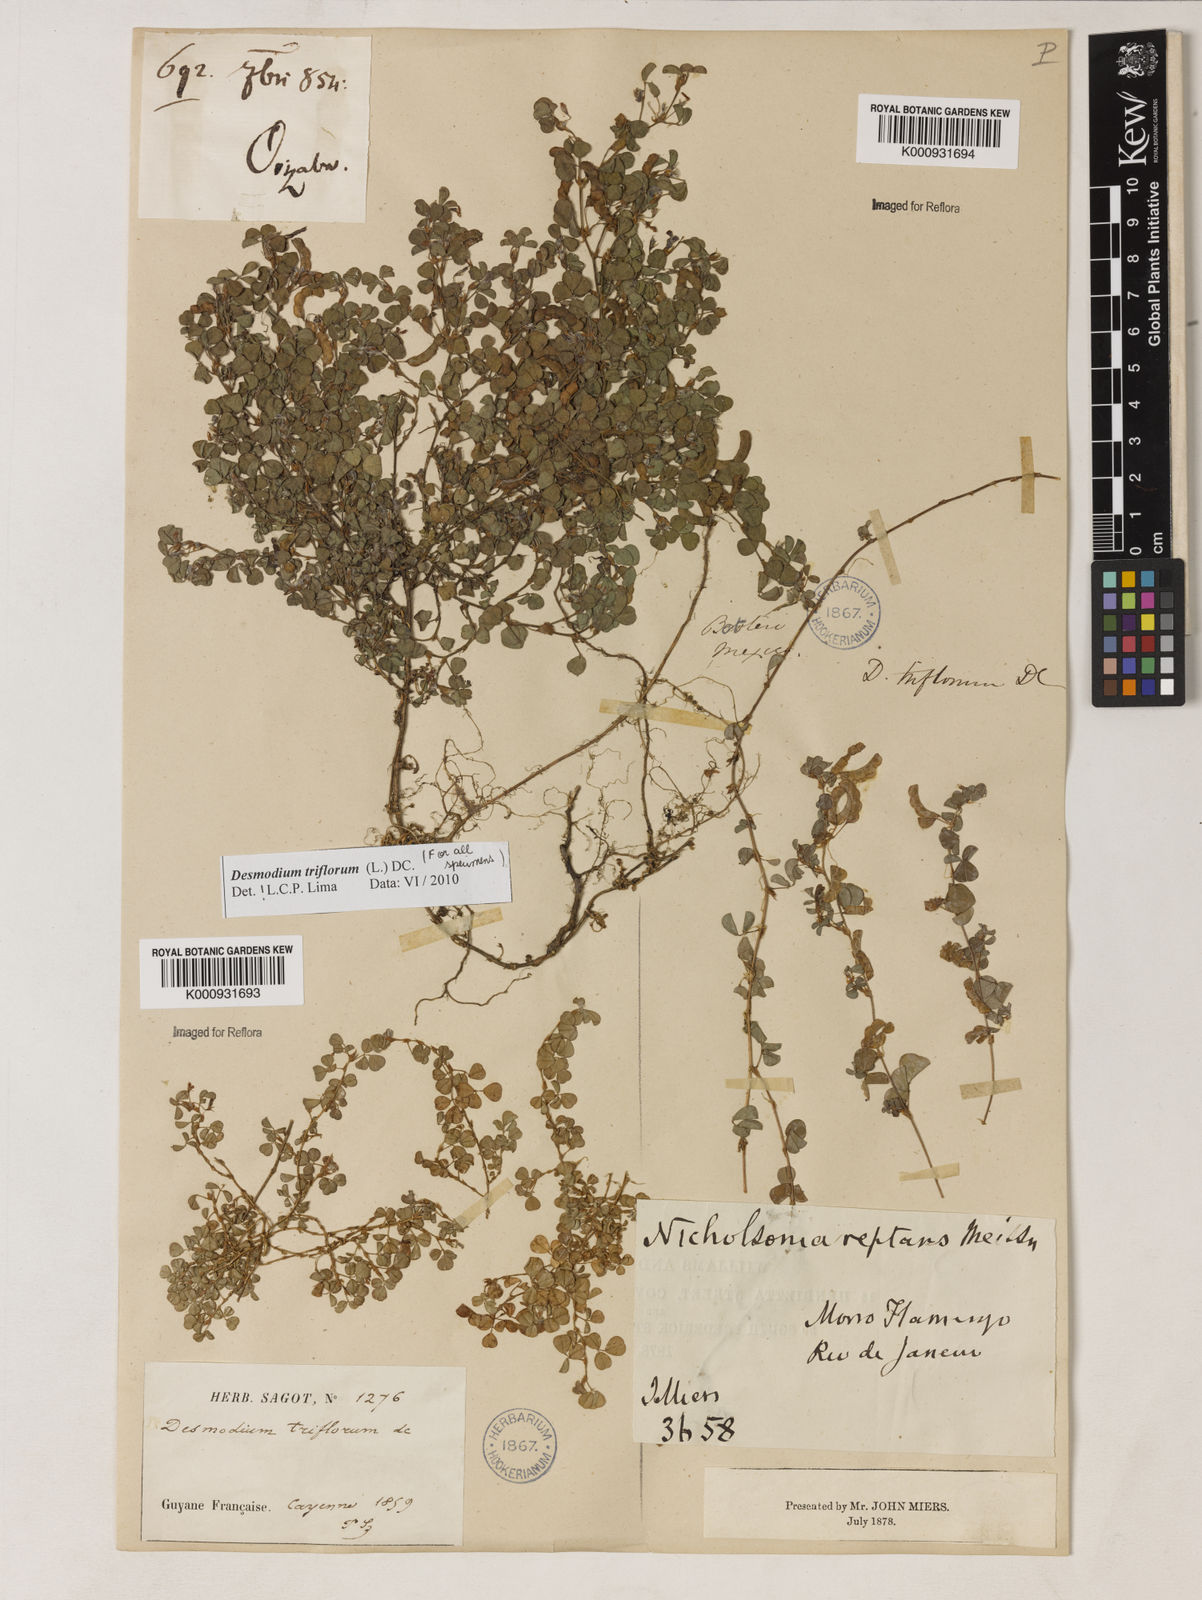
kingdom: Plantae
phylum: Tracheophyta
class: Magnoliopsida
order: Fabales
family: Fabaceae
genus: Grona
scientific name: Grona triflora
